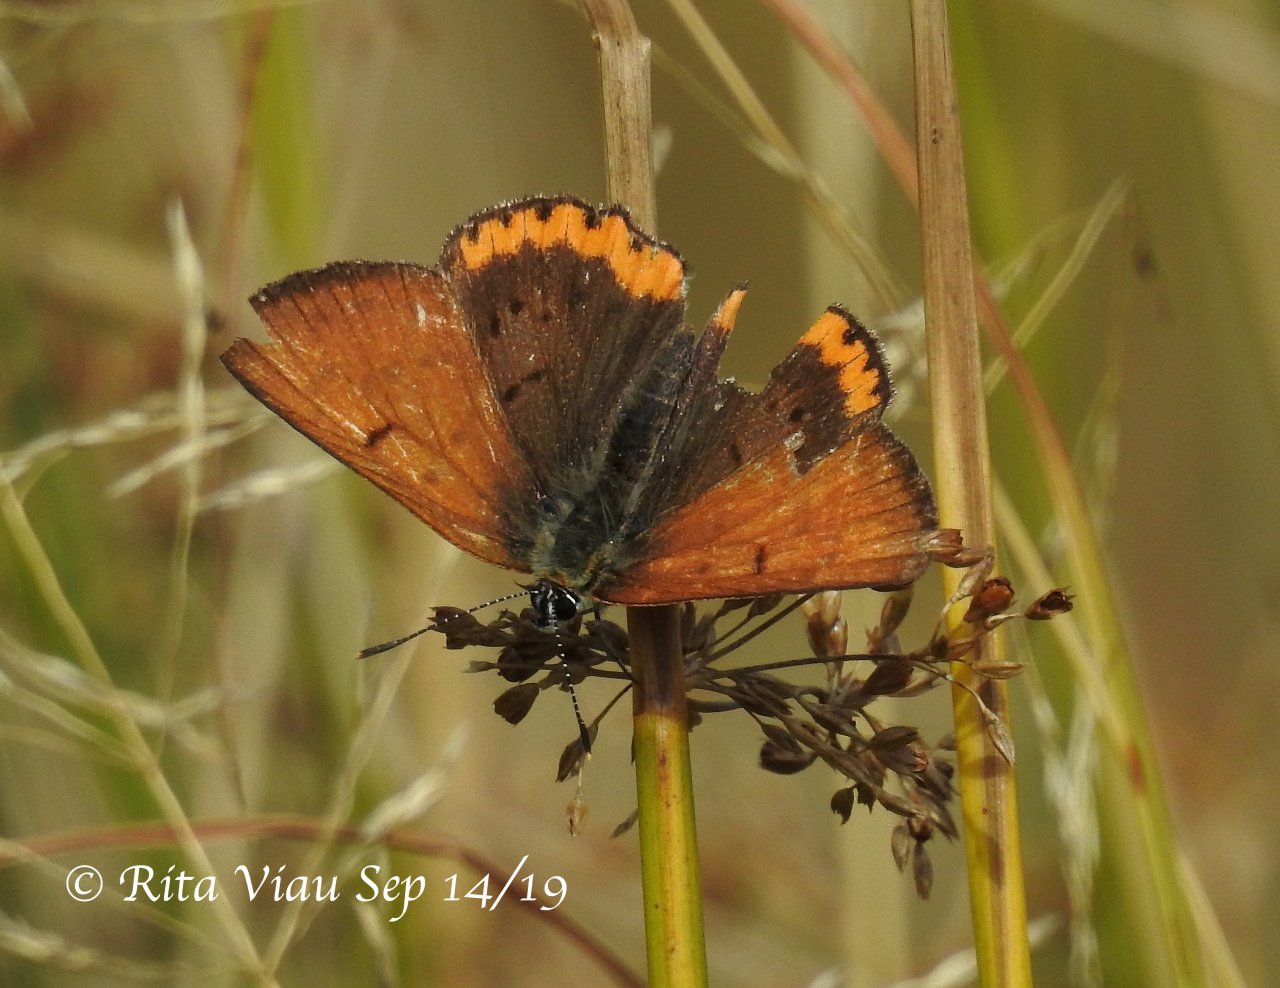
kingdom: Animalia
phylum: Arthropoda
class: Insecta
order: Lepidoptera
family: Sesiidae
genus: Sesia
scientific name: Sesia Lycaena hyllus
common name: Bronze Copper
